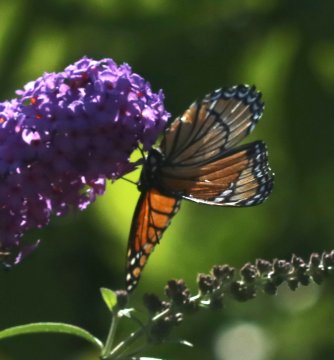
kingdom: Animalia
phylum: Arthropoda
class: Insecta
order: Lepidoptera
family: Nymphalidae
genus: Limenitis
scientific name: Limenitis archippus
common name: Viceroy
